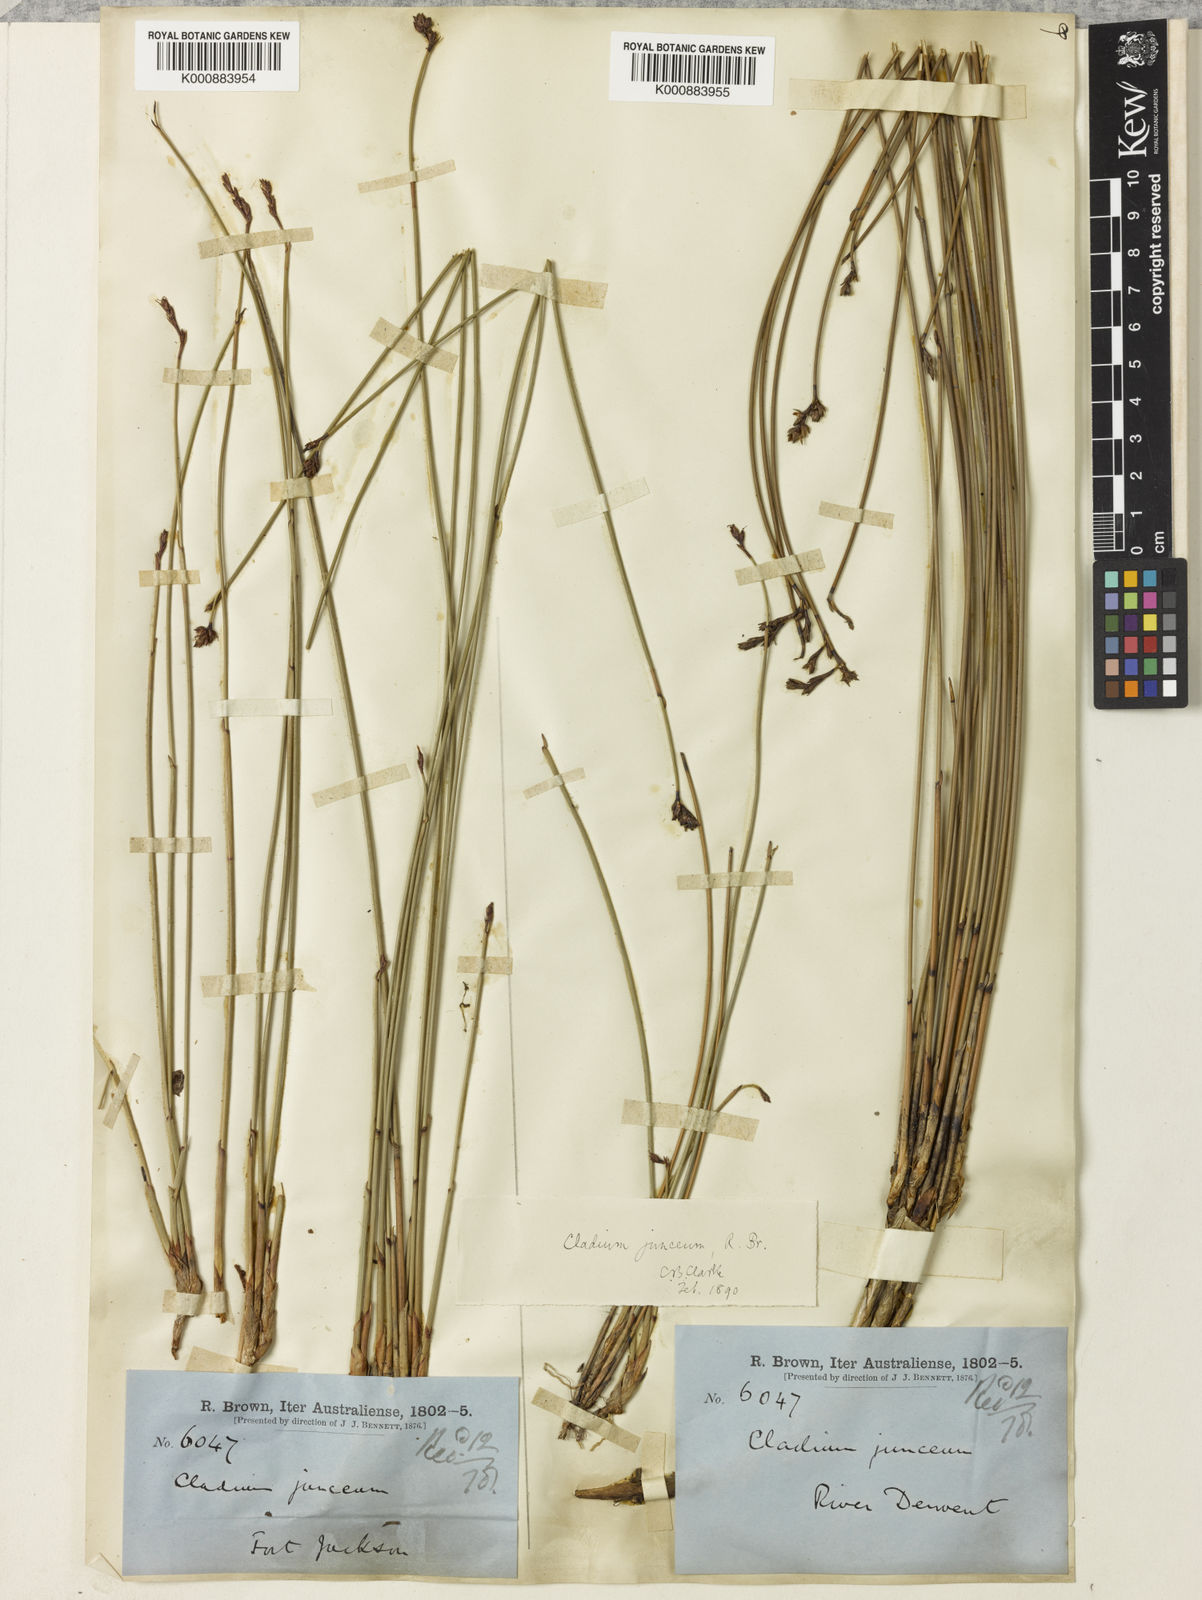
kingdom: Plantae
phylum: Tracheophyta
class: Liliopsida
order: Poales
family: Cyperaceae
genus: Machaerina
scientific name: Machaerina juncea
